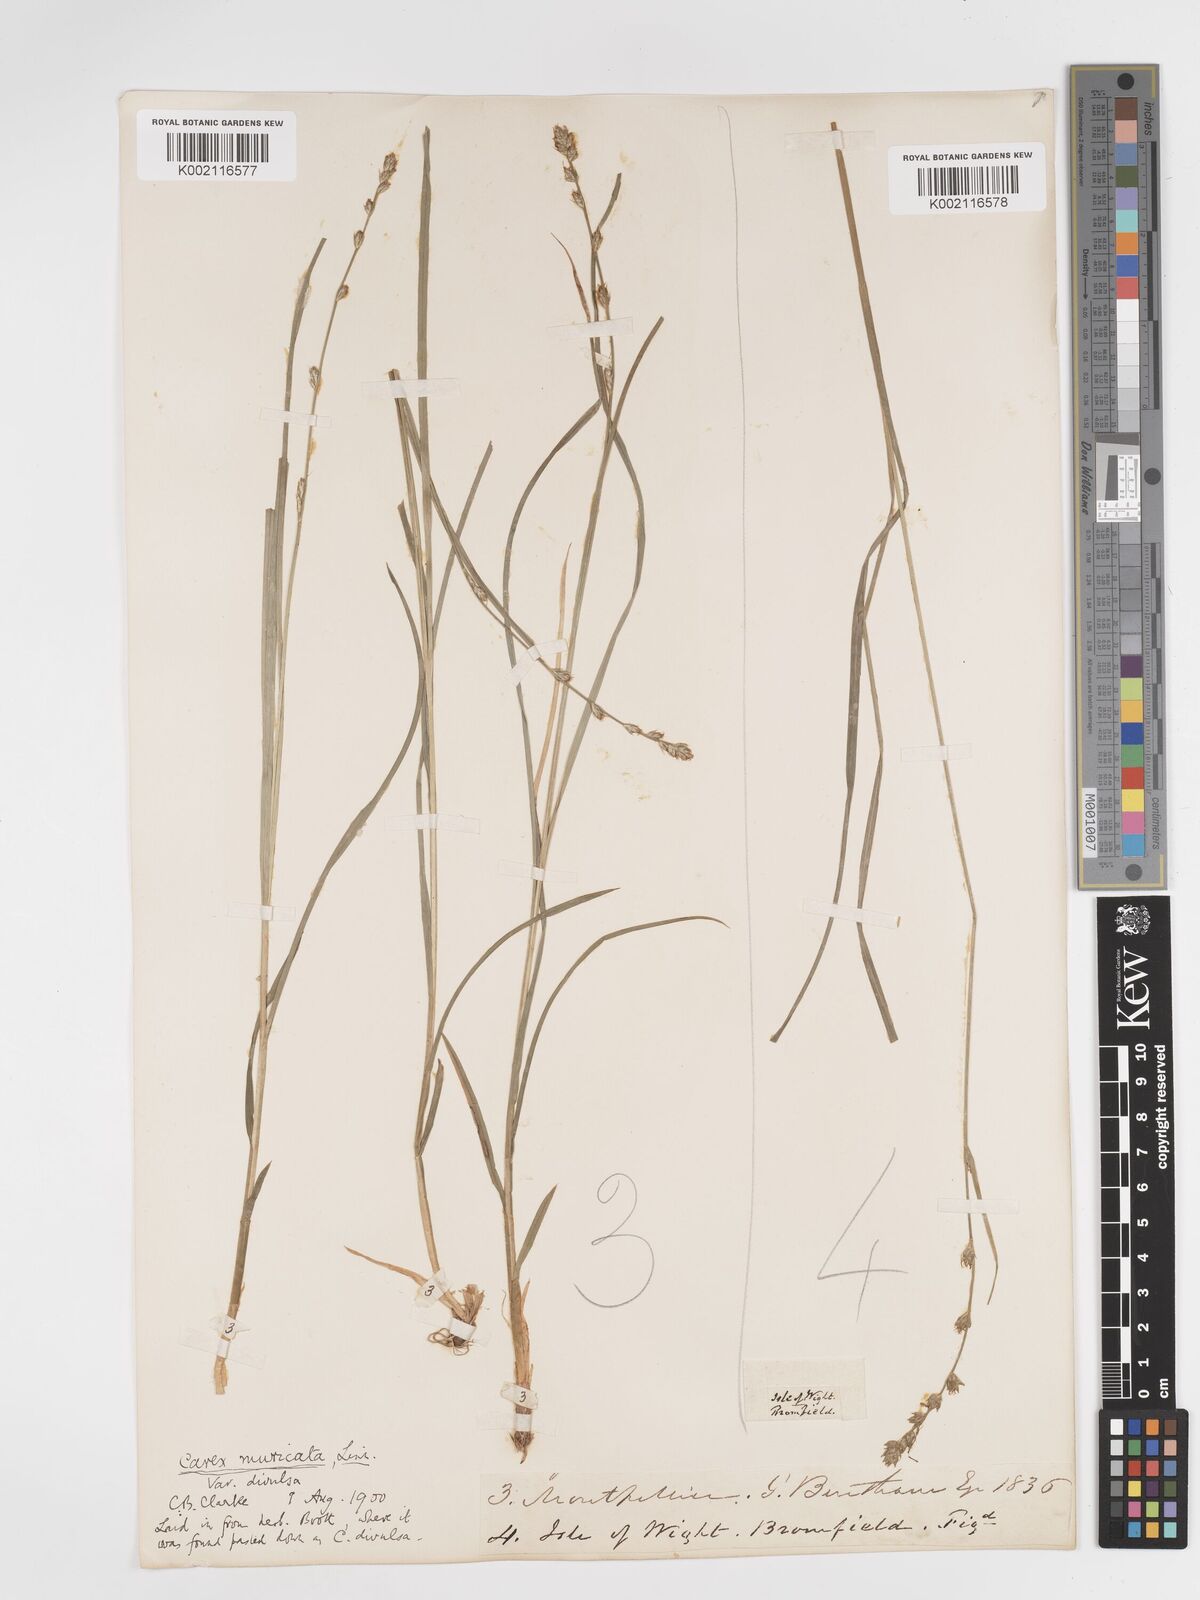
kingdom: Plantae
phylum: Tracheophyta
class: Liliopsida
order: Poales
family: Cyperaceae
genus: Carex
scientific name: Carex divulsa
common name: Grassland sedge
